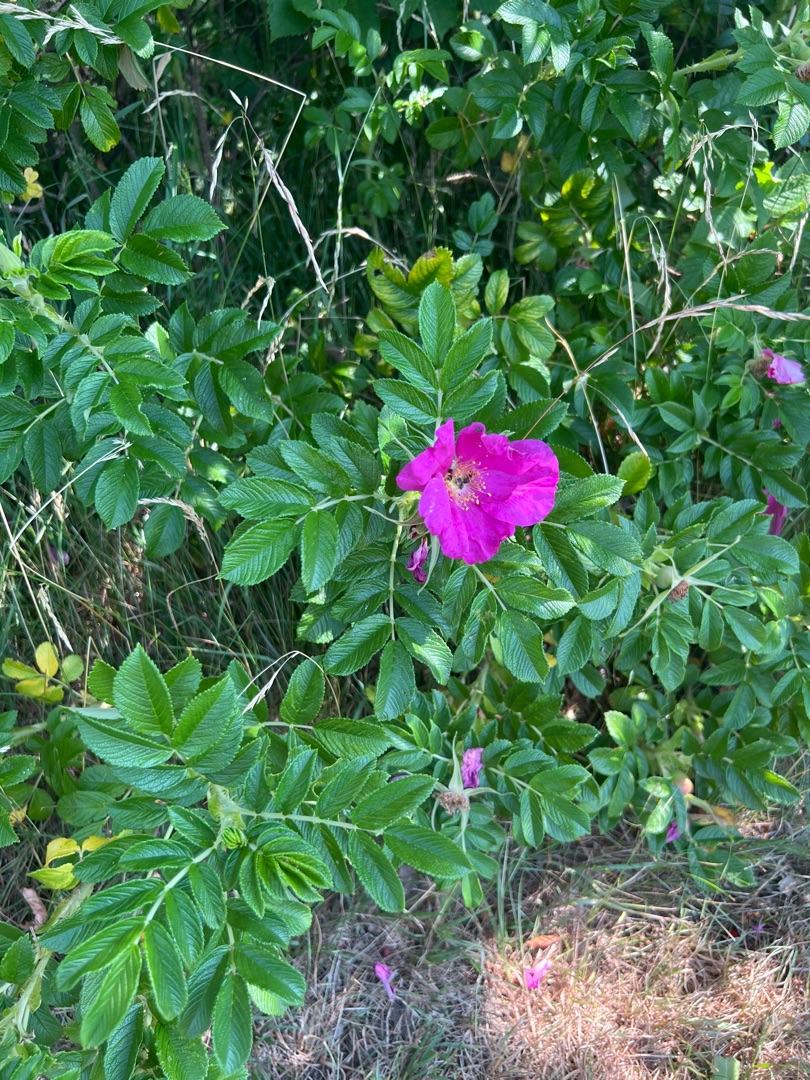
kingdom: Plantae
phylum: Tracheophyta
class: Magnoliopsida
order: Rosales
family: Rosaceae
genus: Rosa
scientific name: Rosa rugosa
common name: Rynket rose
